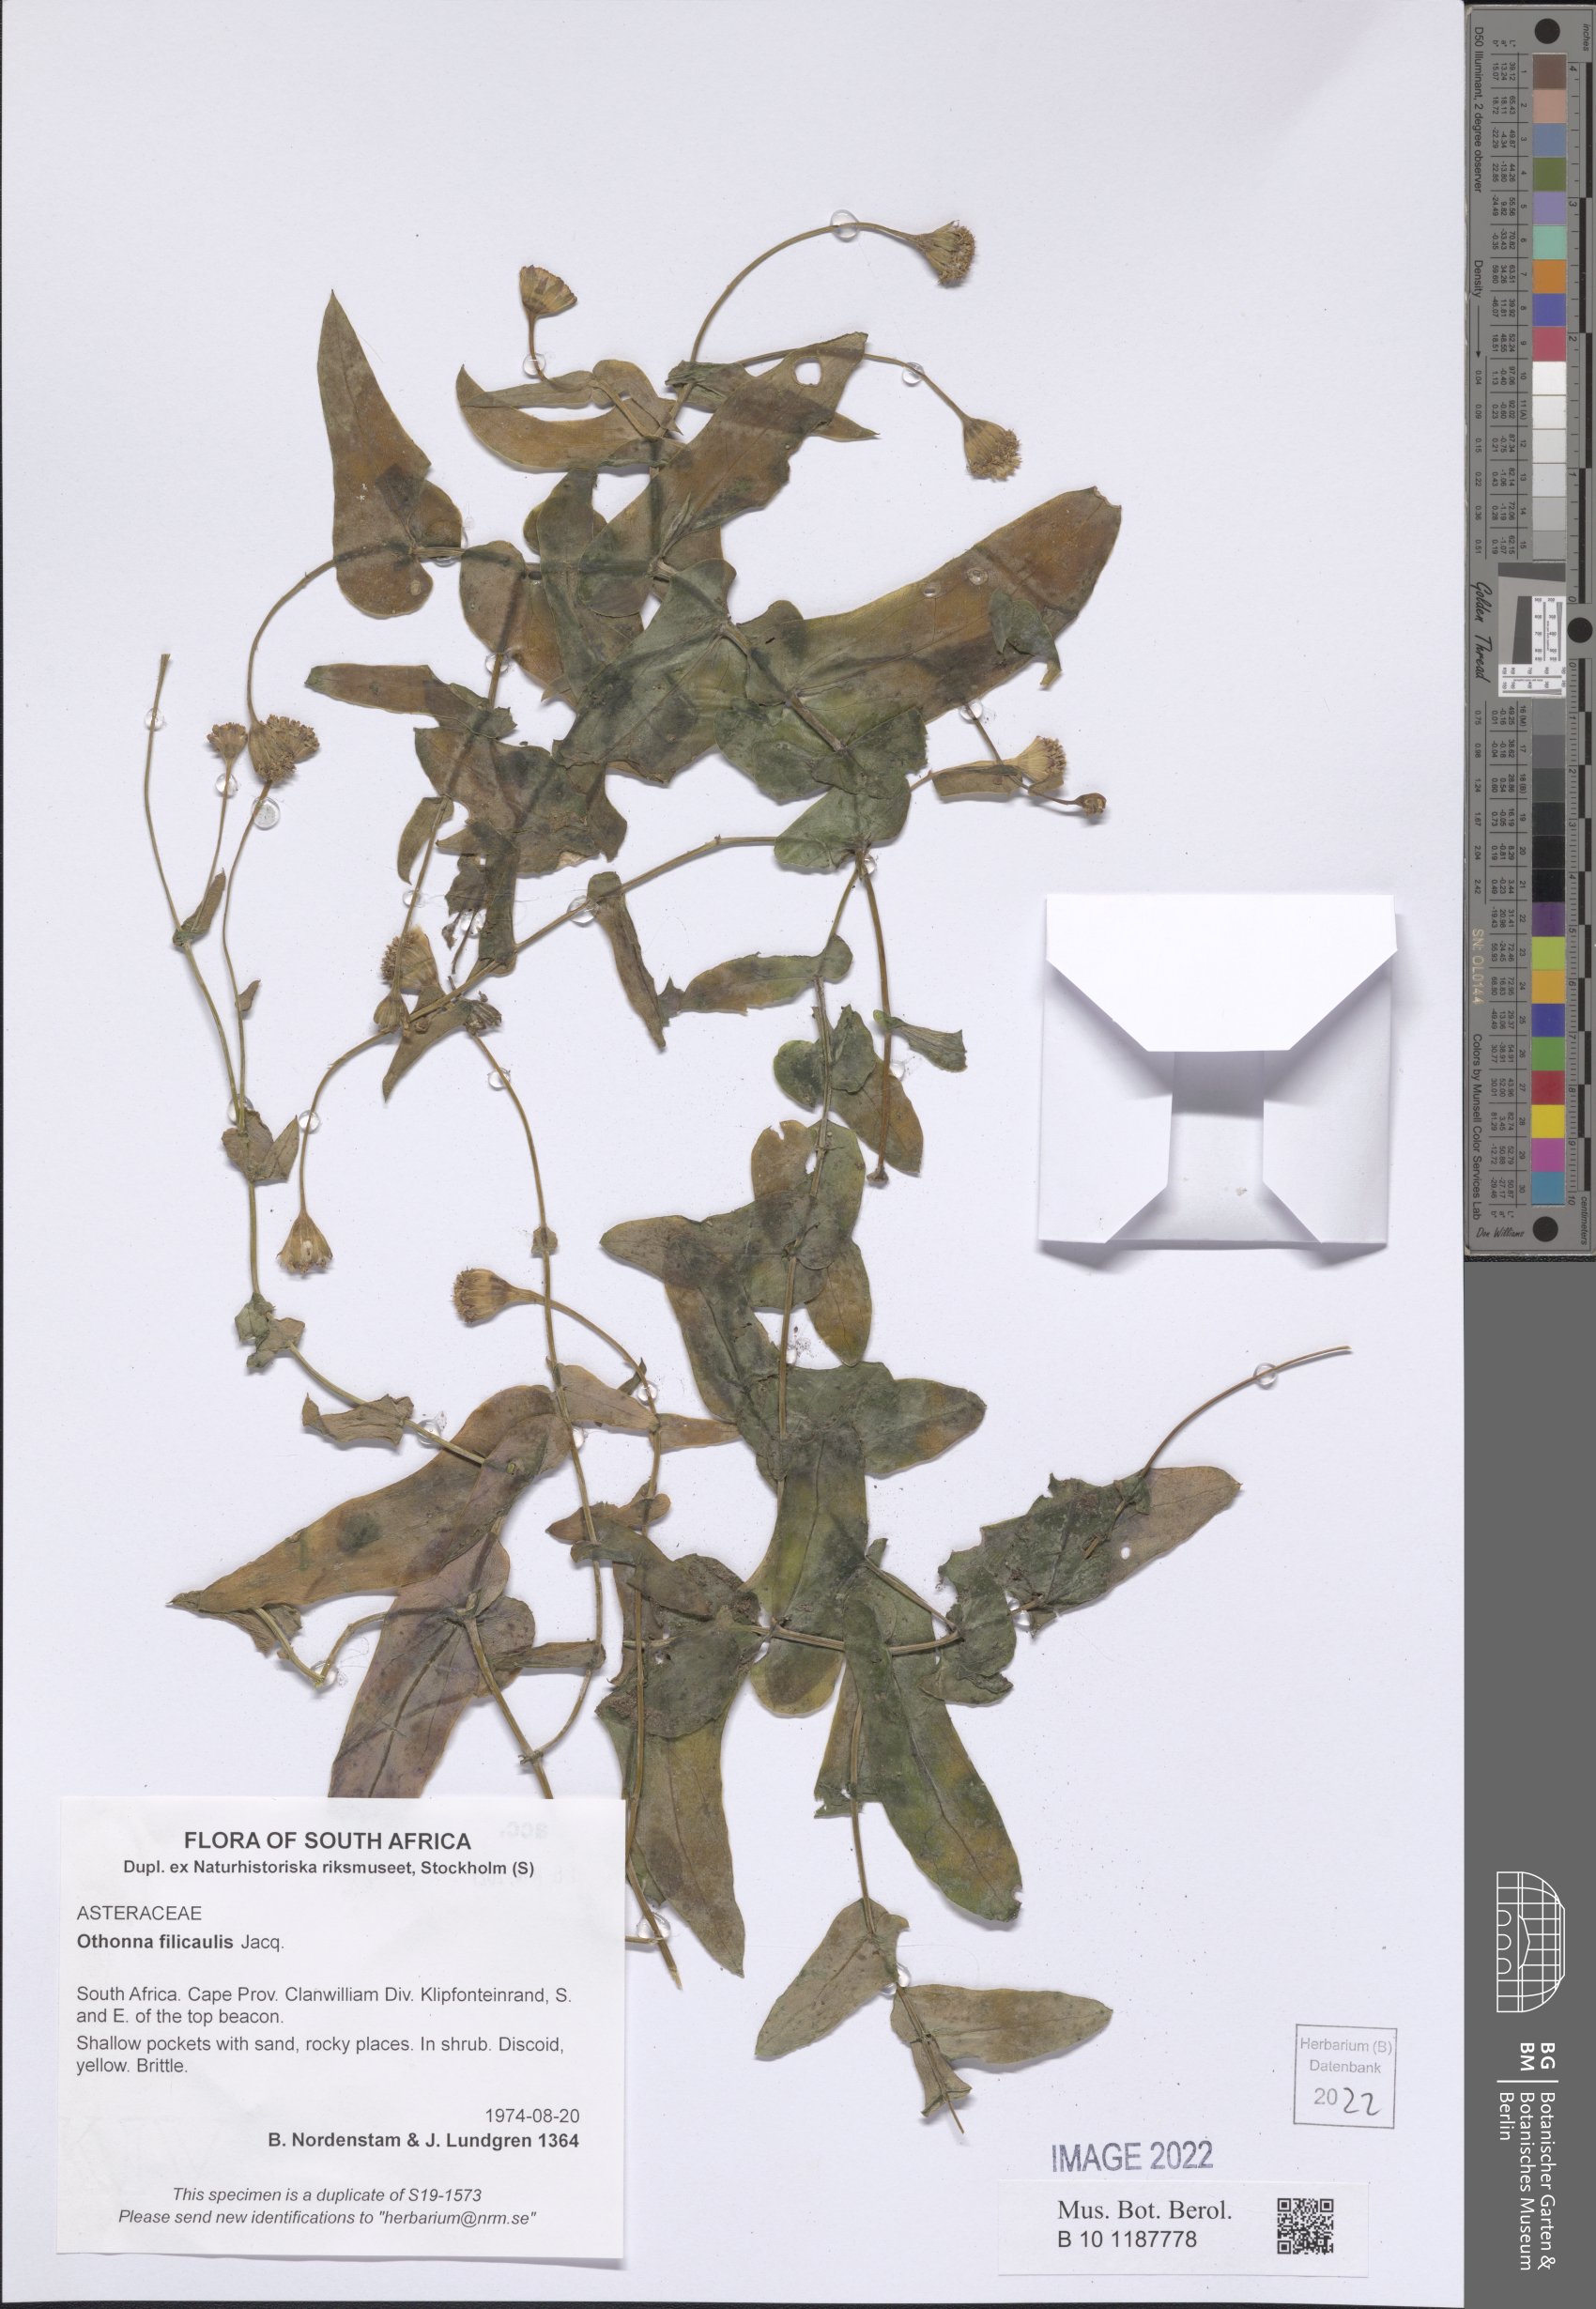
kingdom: Plantae
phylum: Tracheophyta
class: Magnoliopsida
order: Asterales
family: Asteraceae
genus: Othonna
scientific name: Othonna perfoliata
